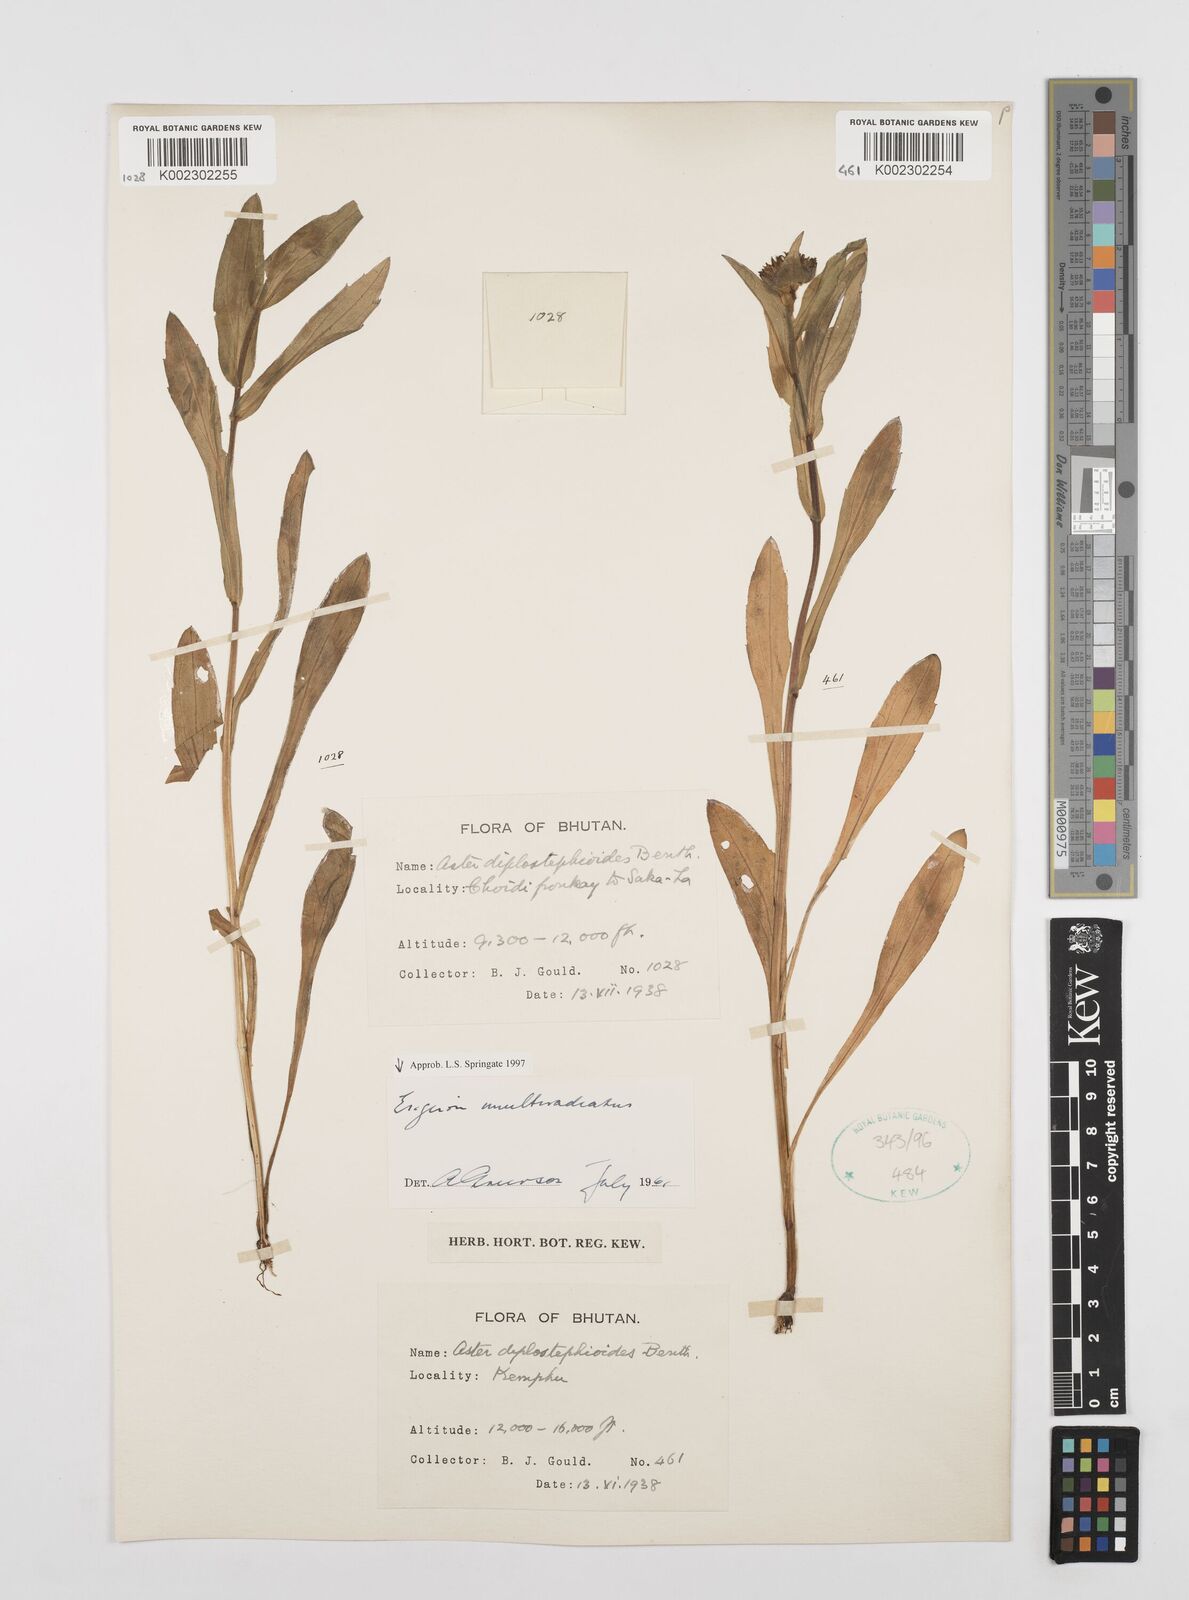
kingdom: Plantae
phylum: Tracheophyta
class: Magnoliopsida
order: Asterales
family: Asteraceae
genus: Erigeron
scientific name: Erigeron multiradiatus
